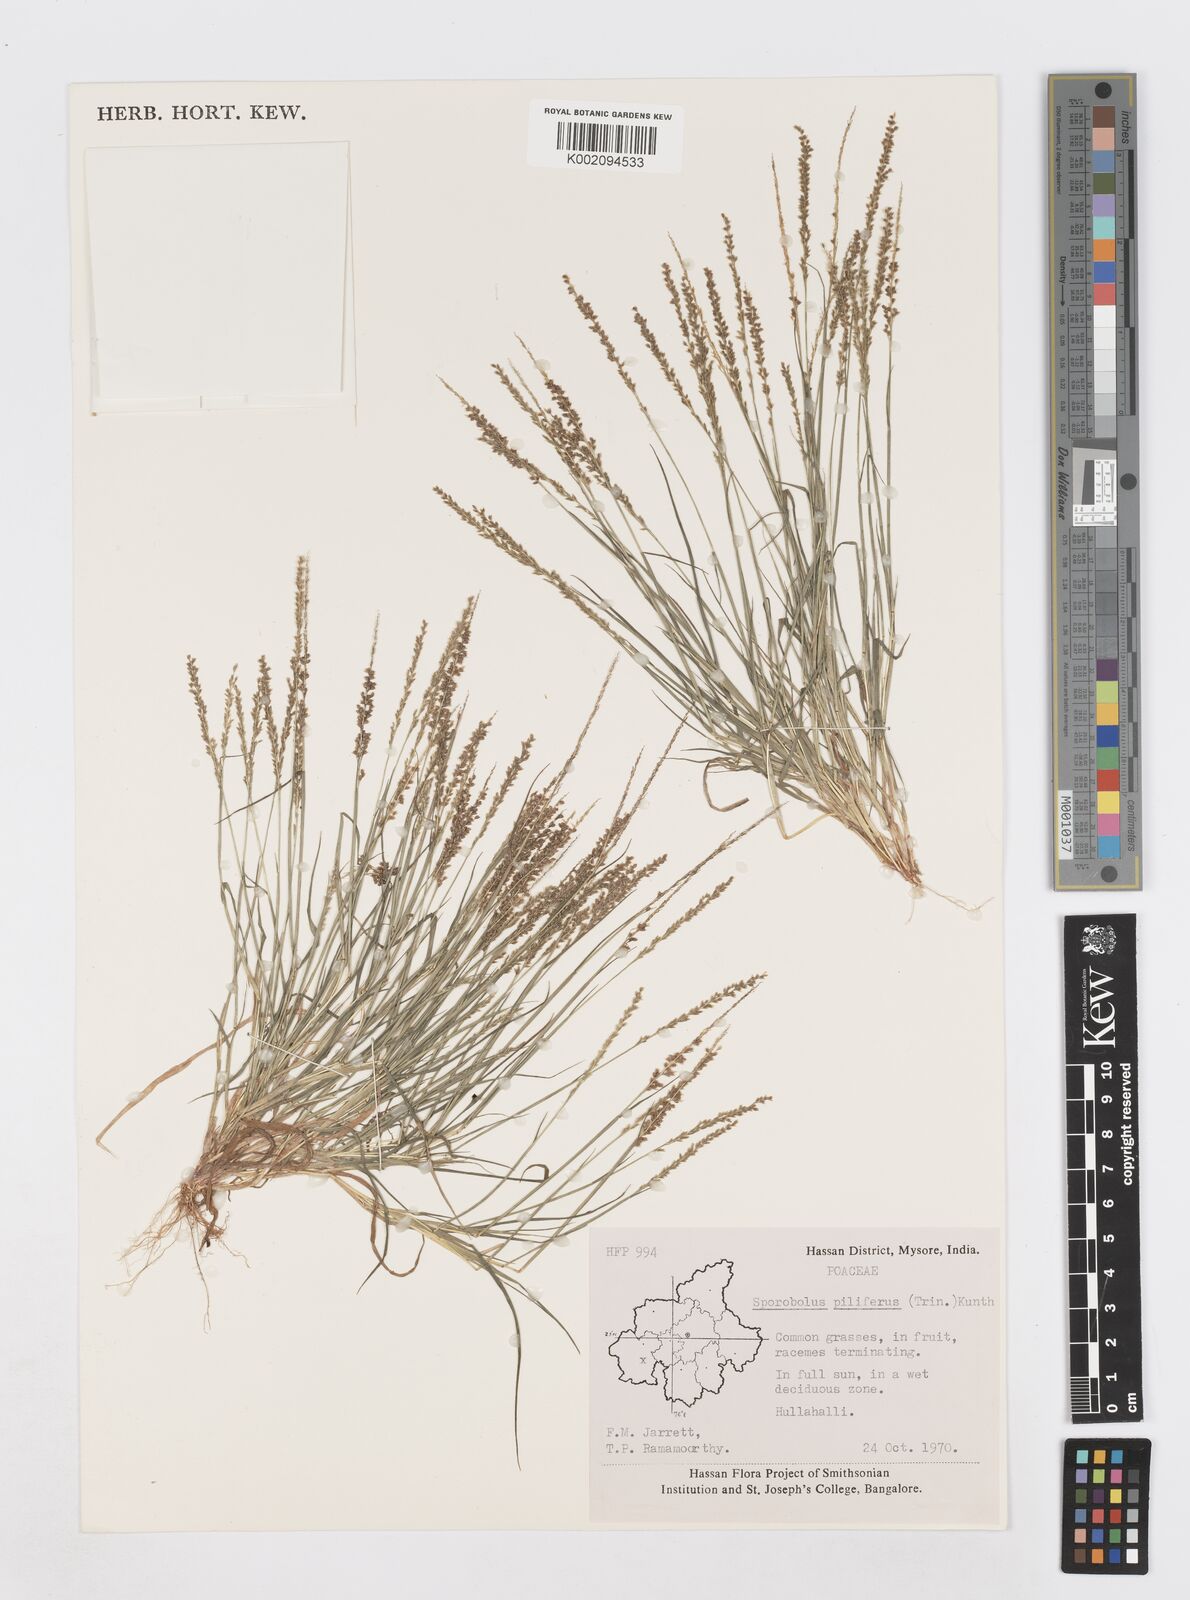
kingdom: Plantae
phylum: Tracheophyta
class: Liliopsida
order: Poales
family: Poaceae
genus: Sporobolus
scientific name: Sporobolus pilifer
